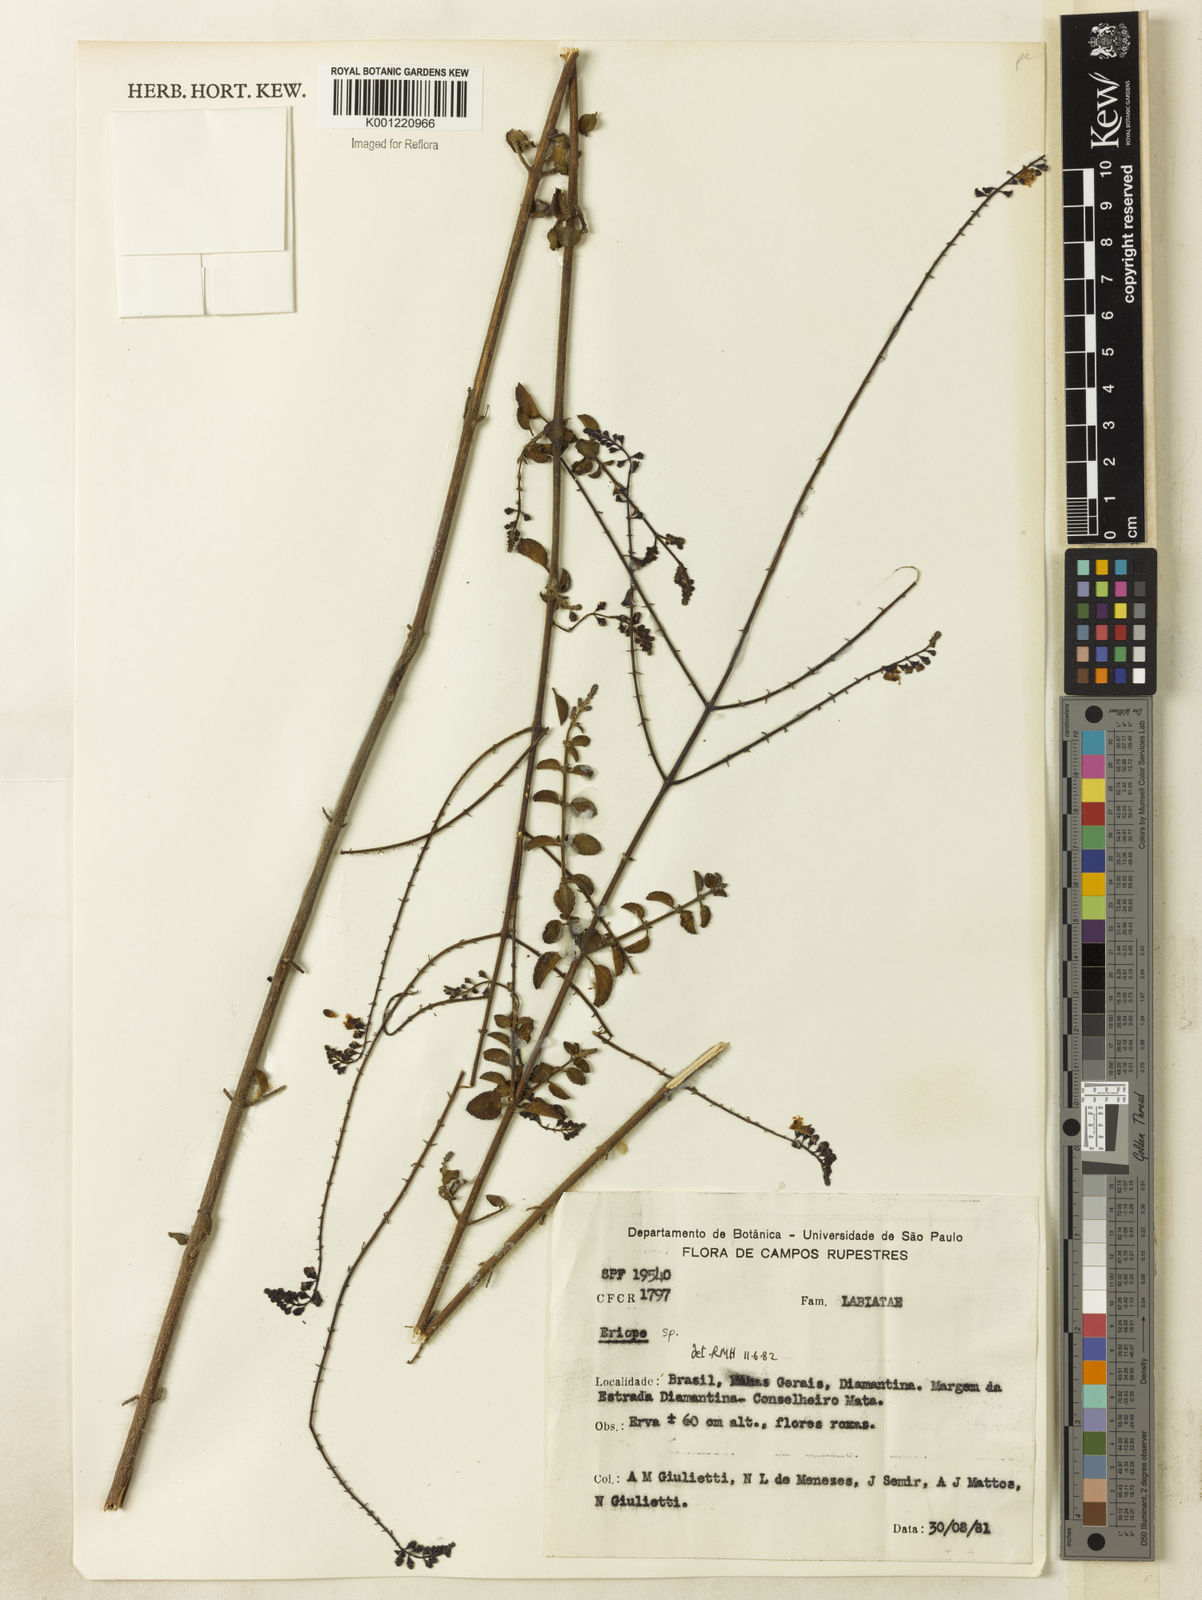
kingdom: Plantae
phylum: Tracheophyta
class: Magnoliopsida
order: Lamiales
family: Lamiaceae
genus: Eriope
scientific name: Eriope glandulosa
